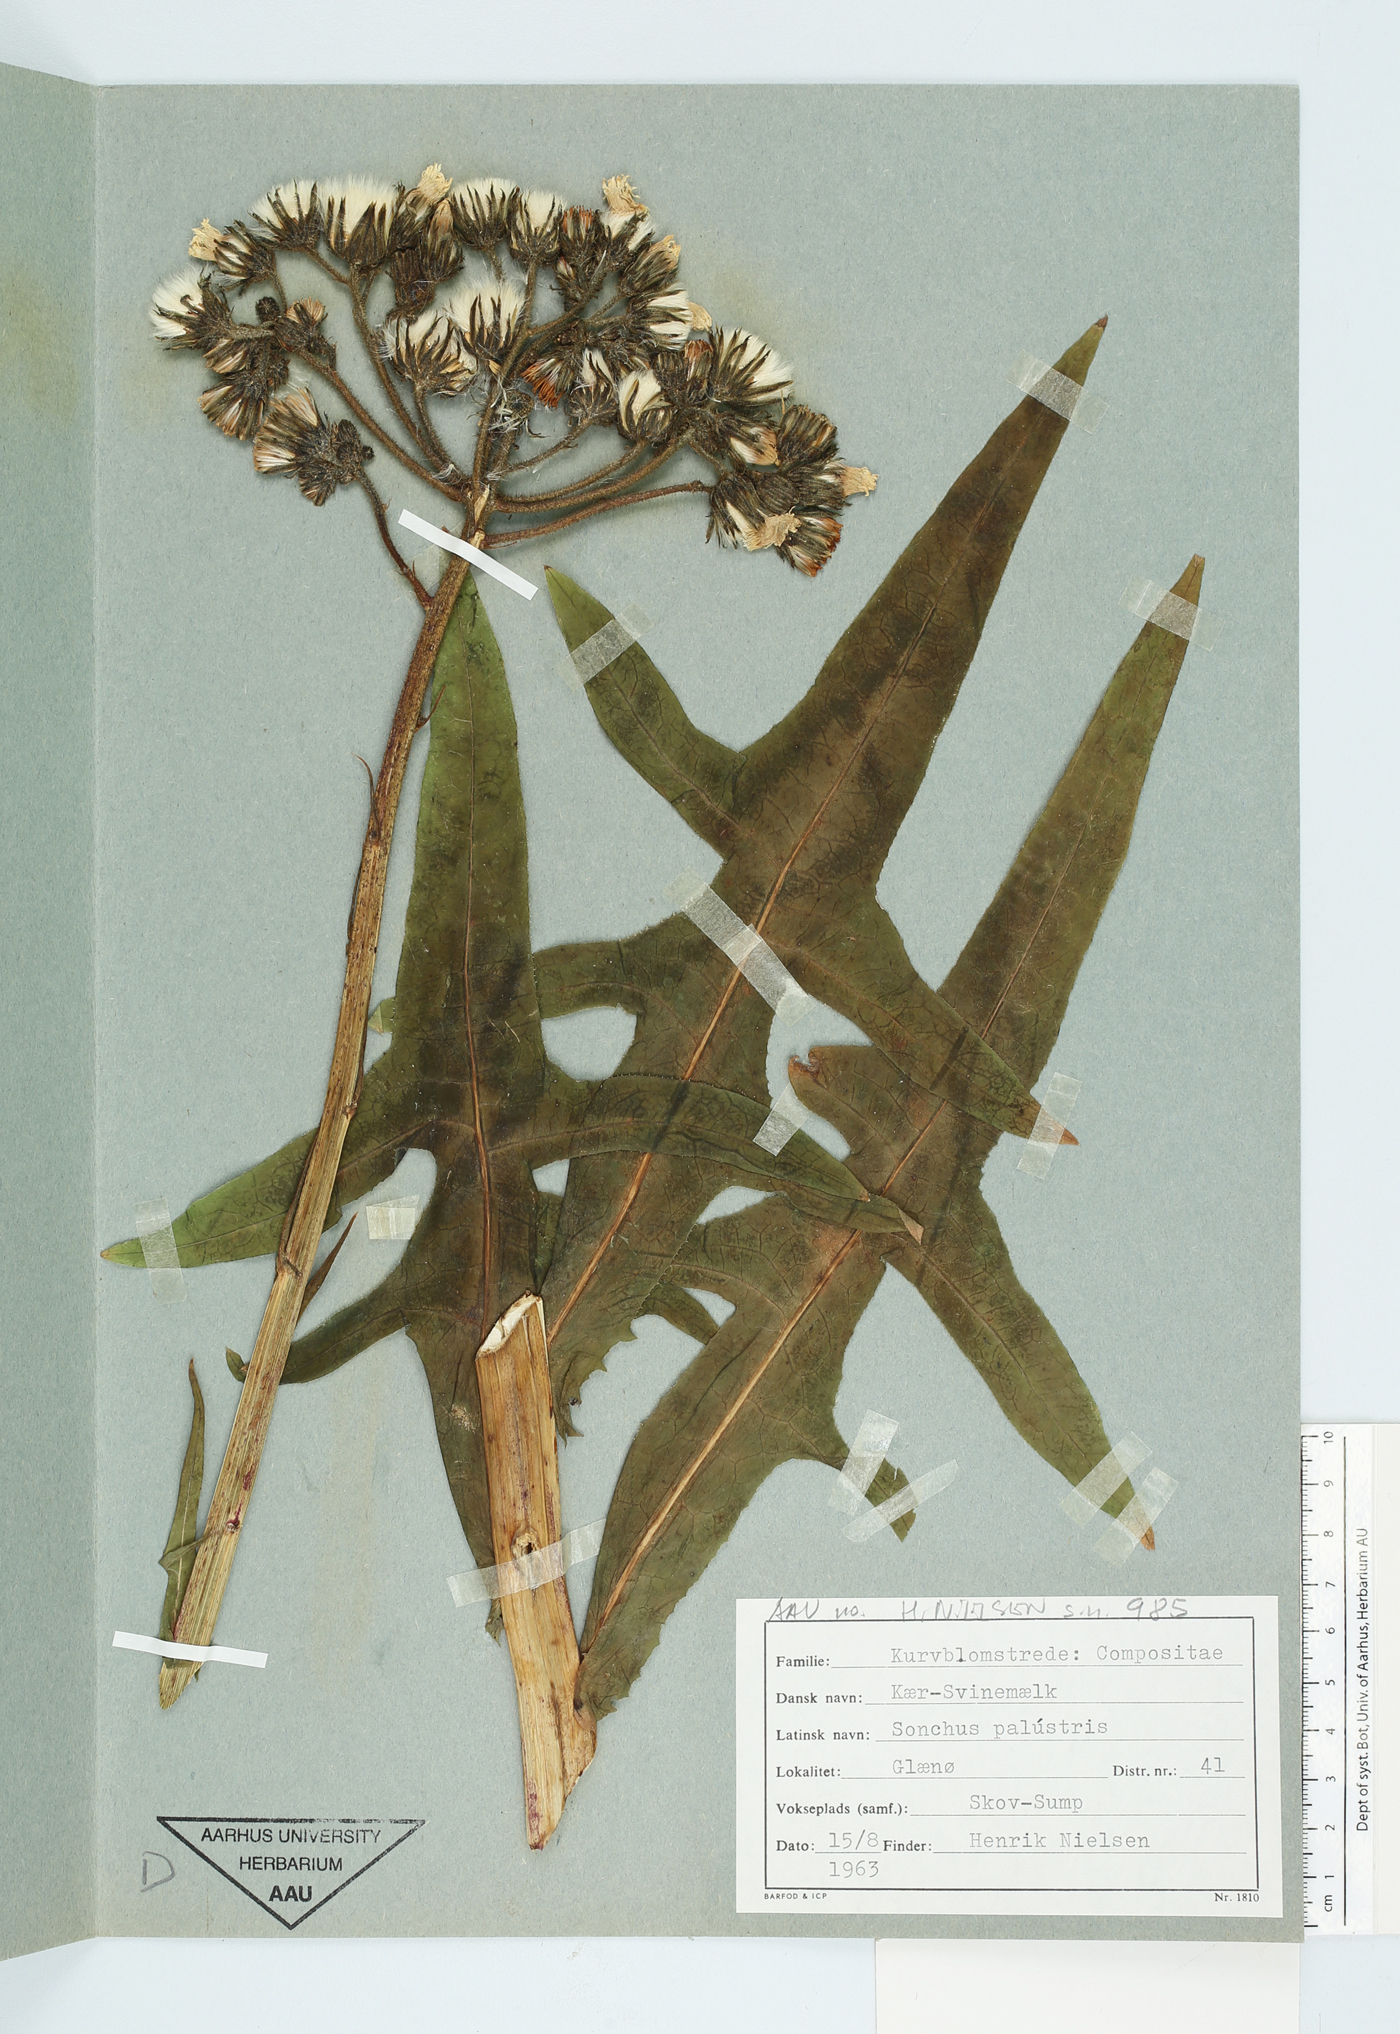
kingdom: Plantae
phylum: Tracheophyta
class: Magnoliopsida
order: Asterales
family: Asteraceae
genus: Sonchus
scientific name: Sonchus palustris
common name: Marsh sow-thistle
